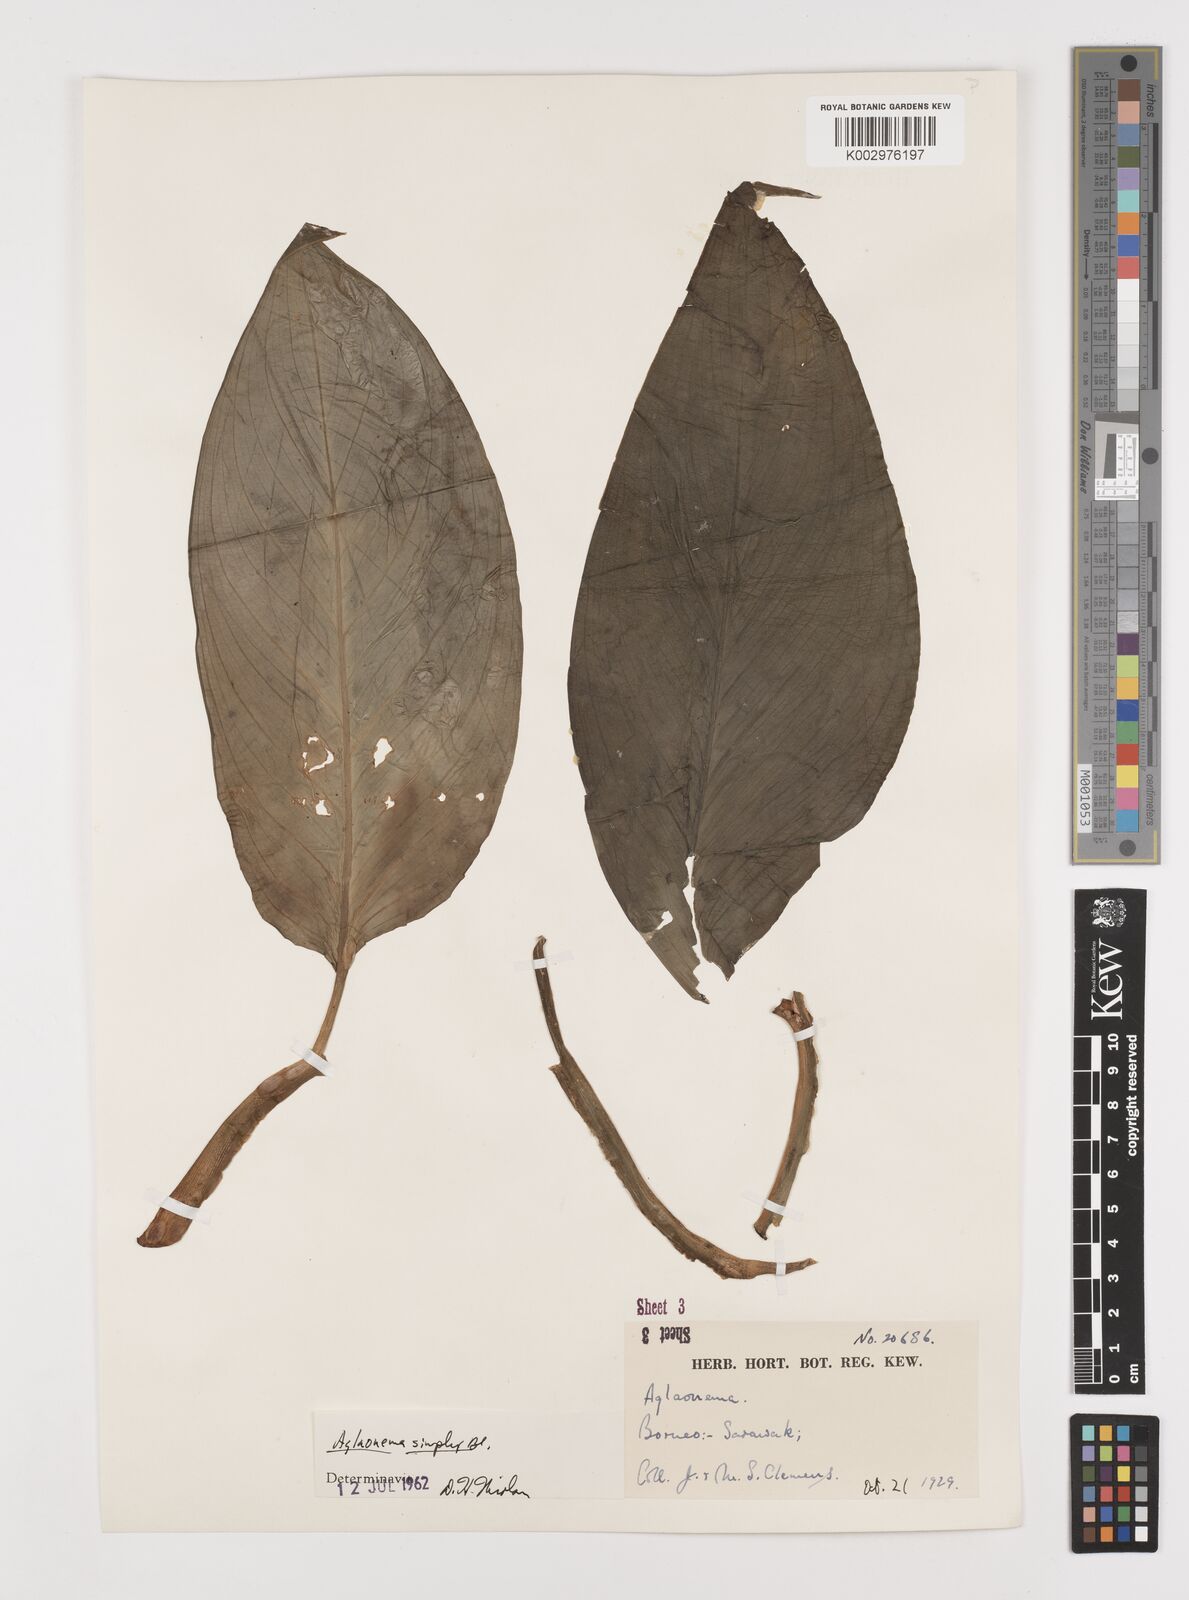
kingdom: Plantae
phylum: Tracheophyta
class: Liliopsida
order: Alismatales
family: Araceae
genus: Aglaonema
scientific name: Aglaonema simplex
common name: Malayan-sword
